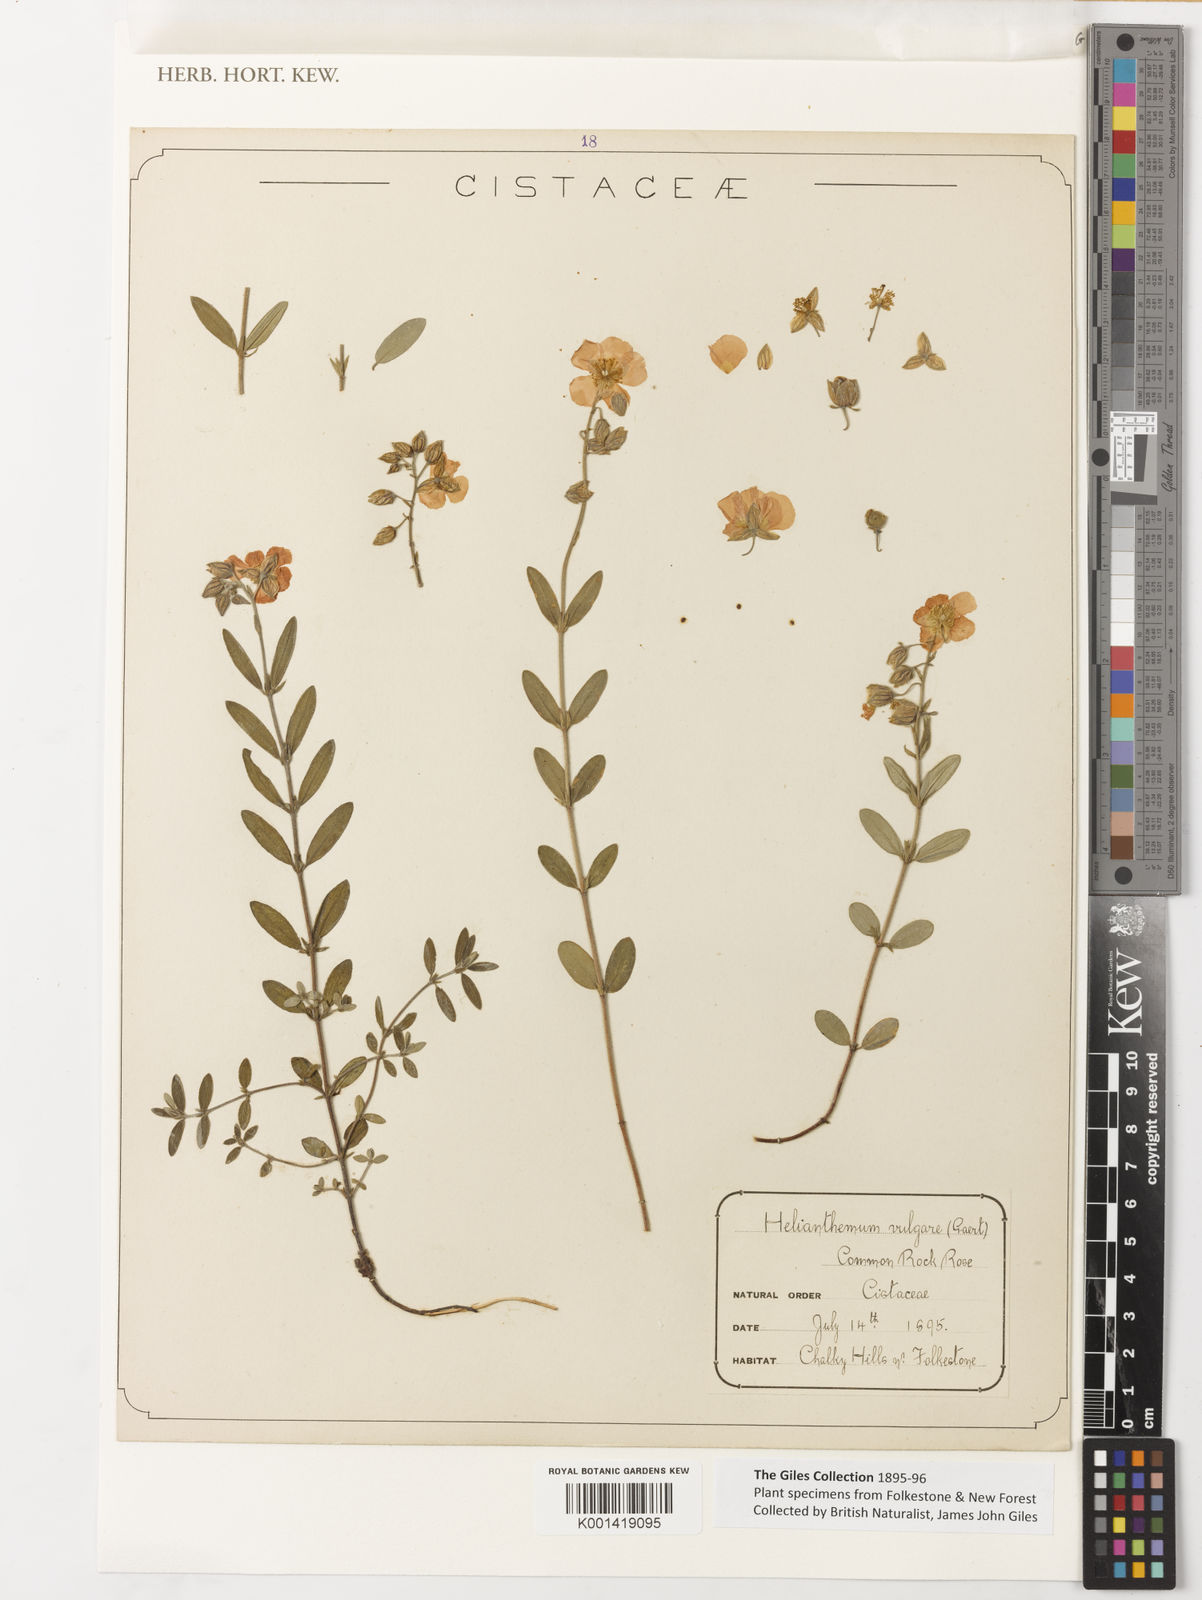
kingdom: Plantae
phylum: Tracheophyta
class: Magnoliopsida
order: Malvales
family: Cistaceae
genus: Helianthemum
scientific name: Helianthemum nummularium
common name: Common rock-rose
